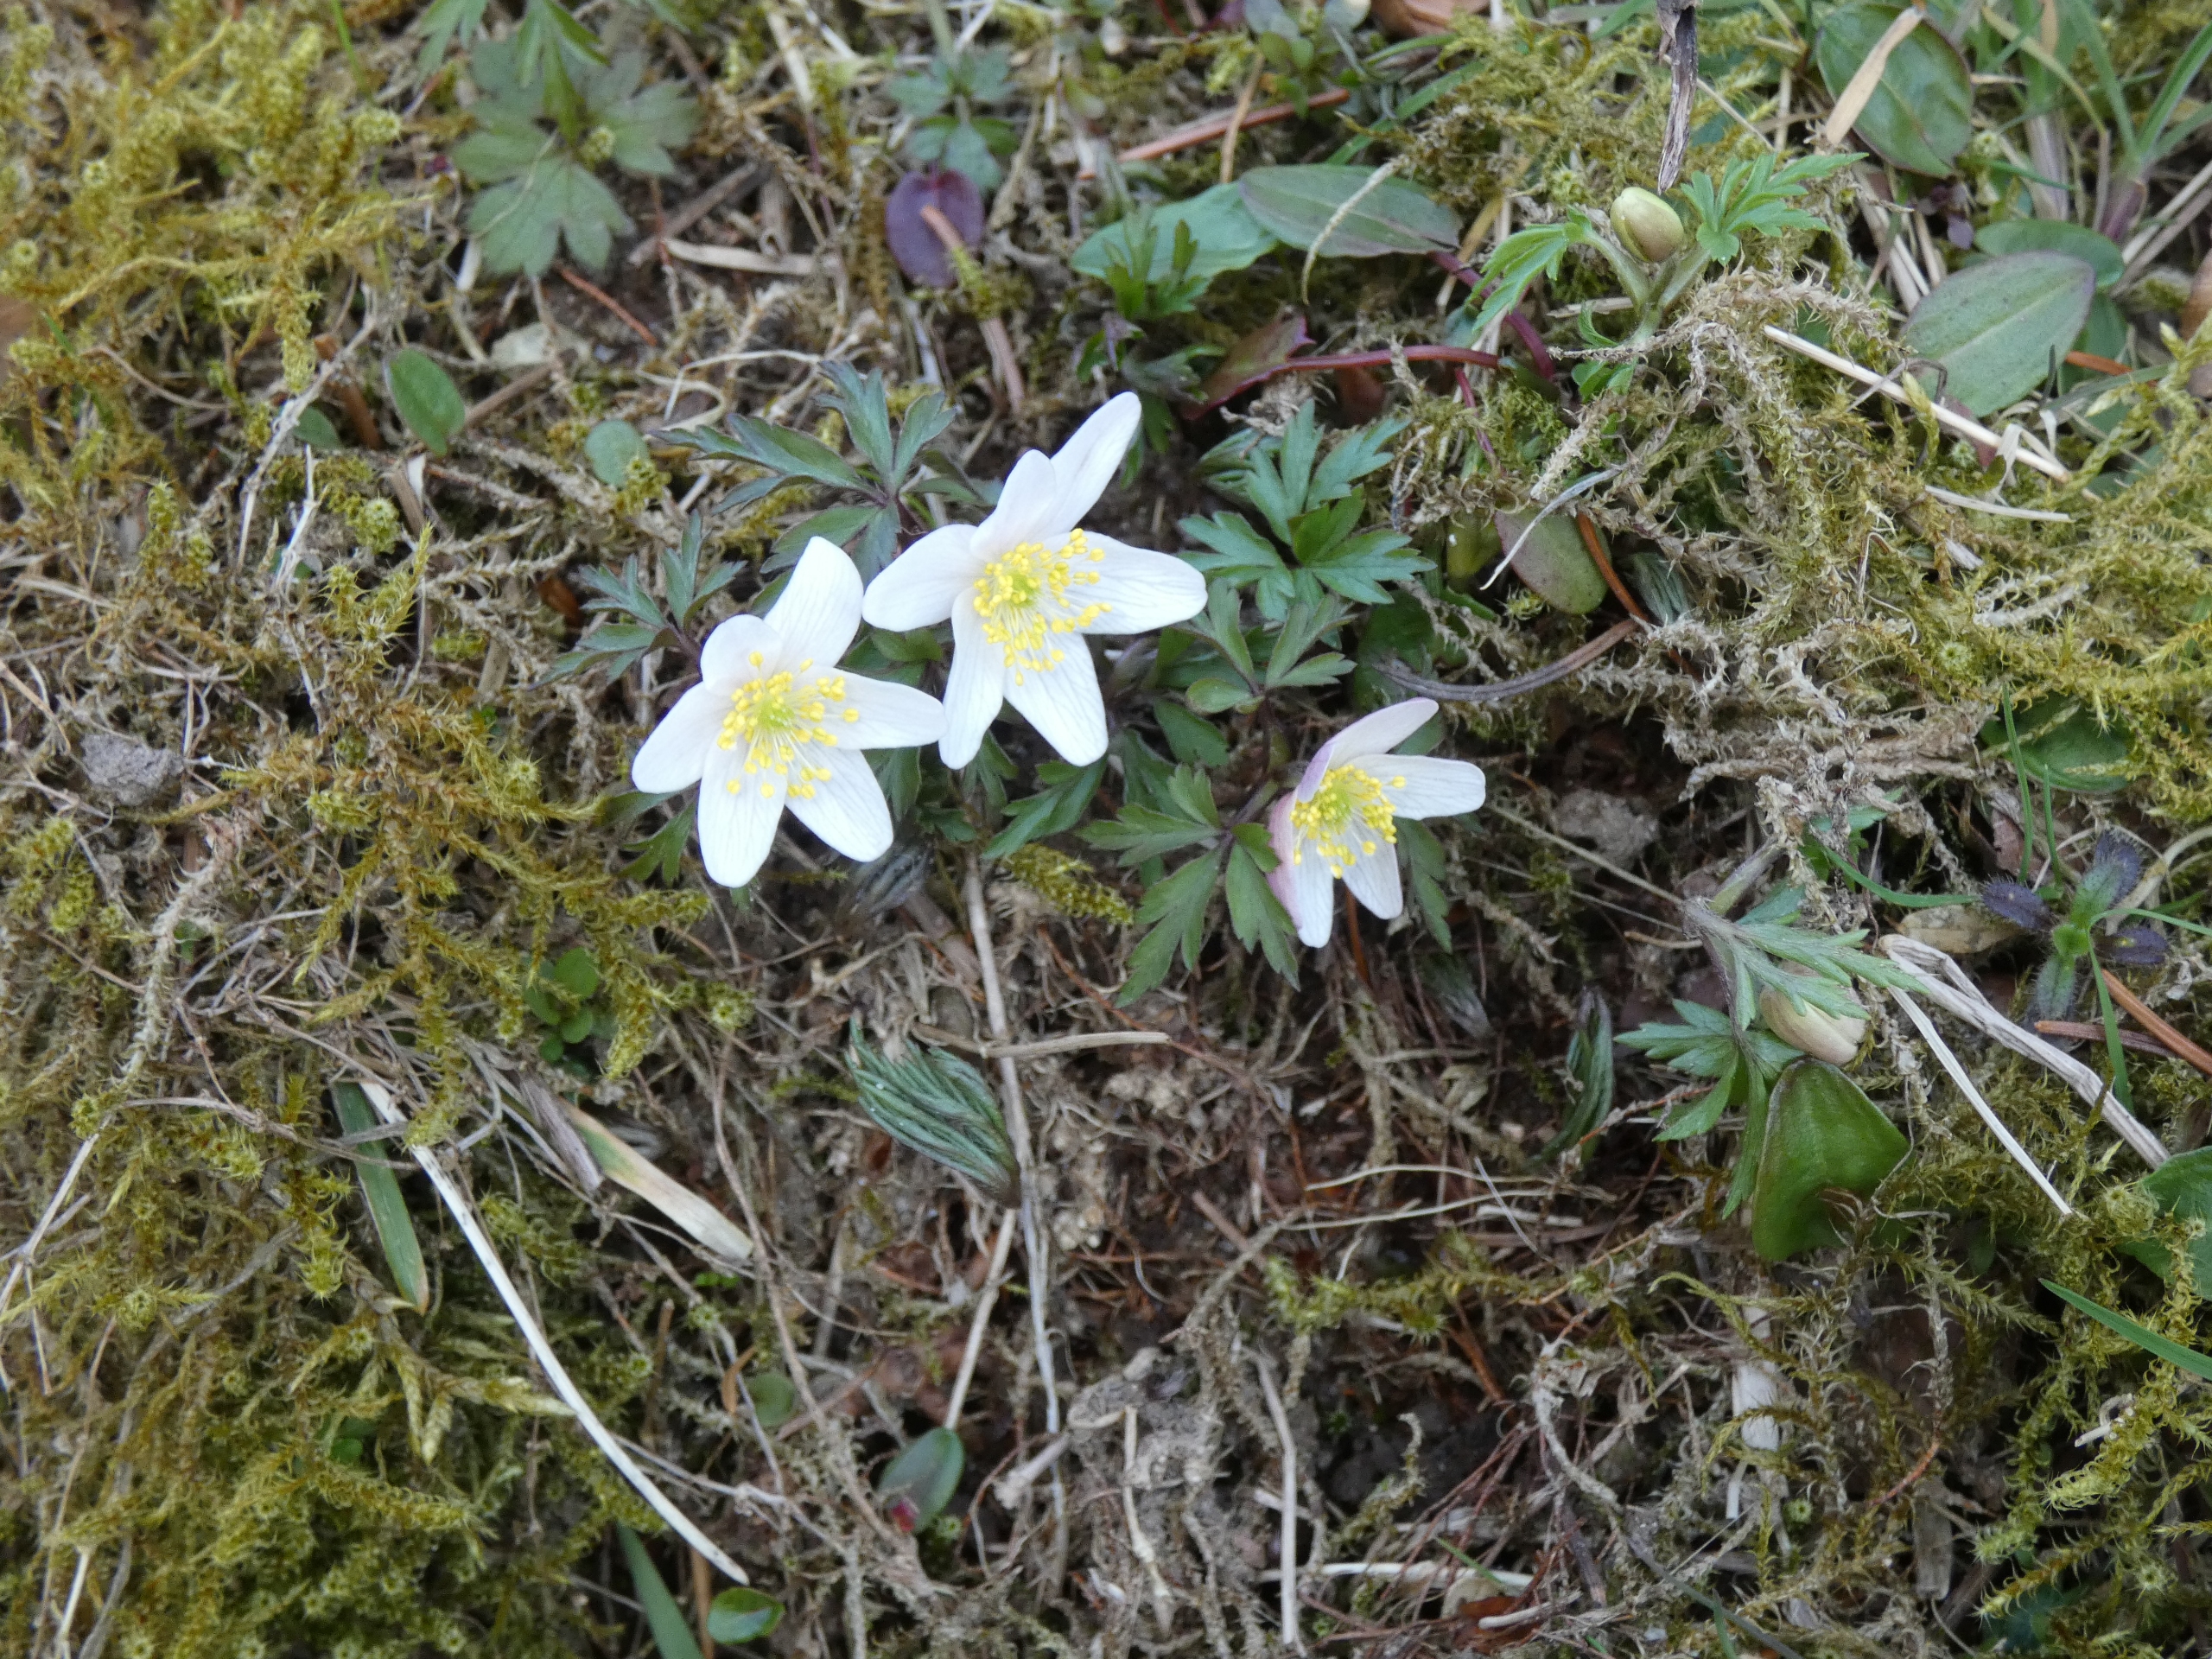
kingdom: Plantae
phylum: Tracheophyta
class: Magnoliopsida
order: Ranunculales
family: Ranunculaceae
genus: Anemone
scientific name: Anemone nemorosa
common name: Hvid anemone
